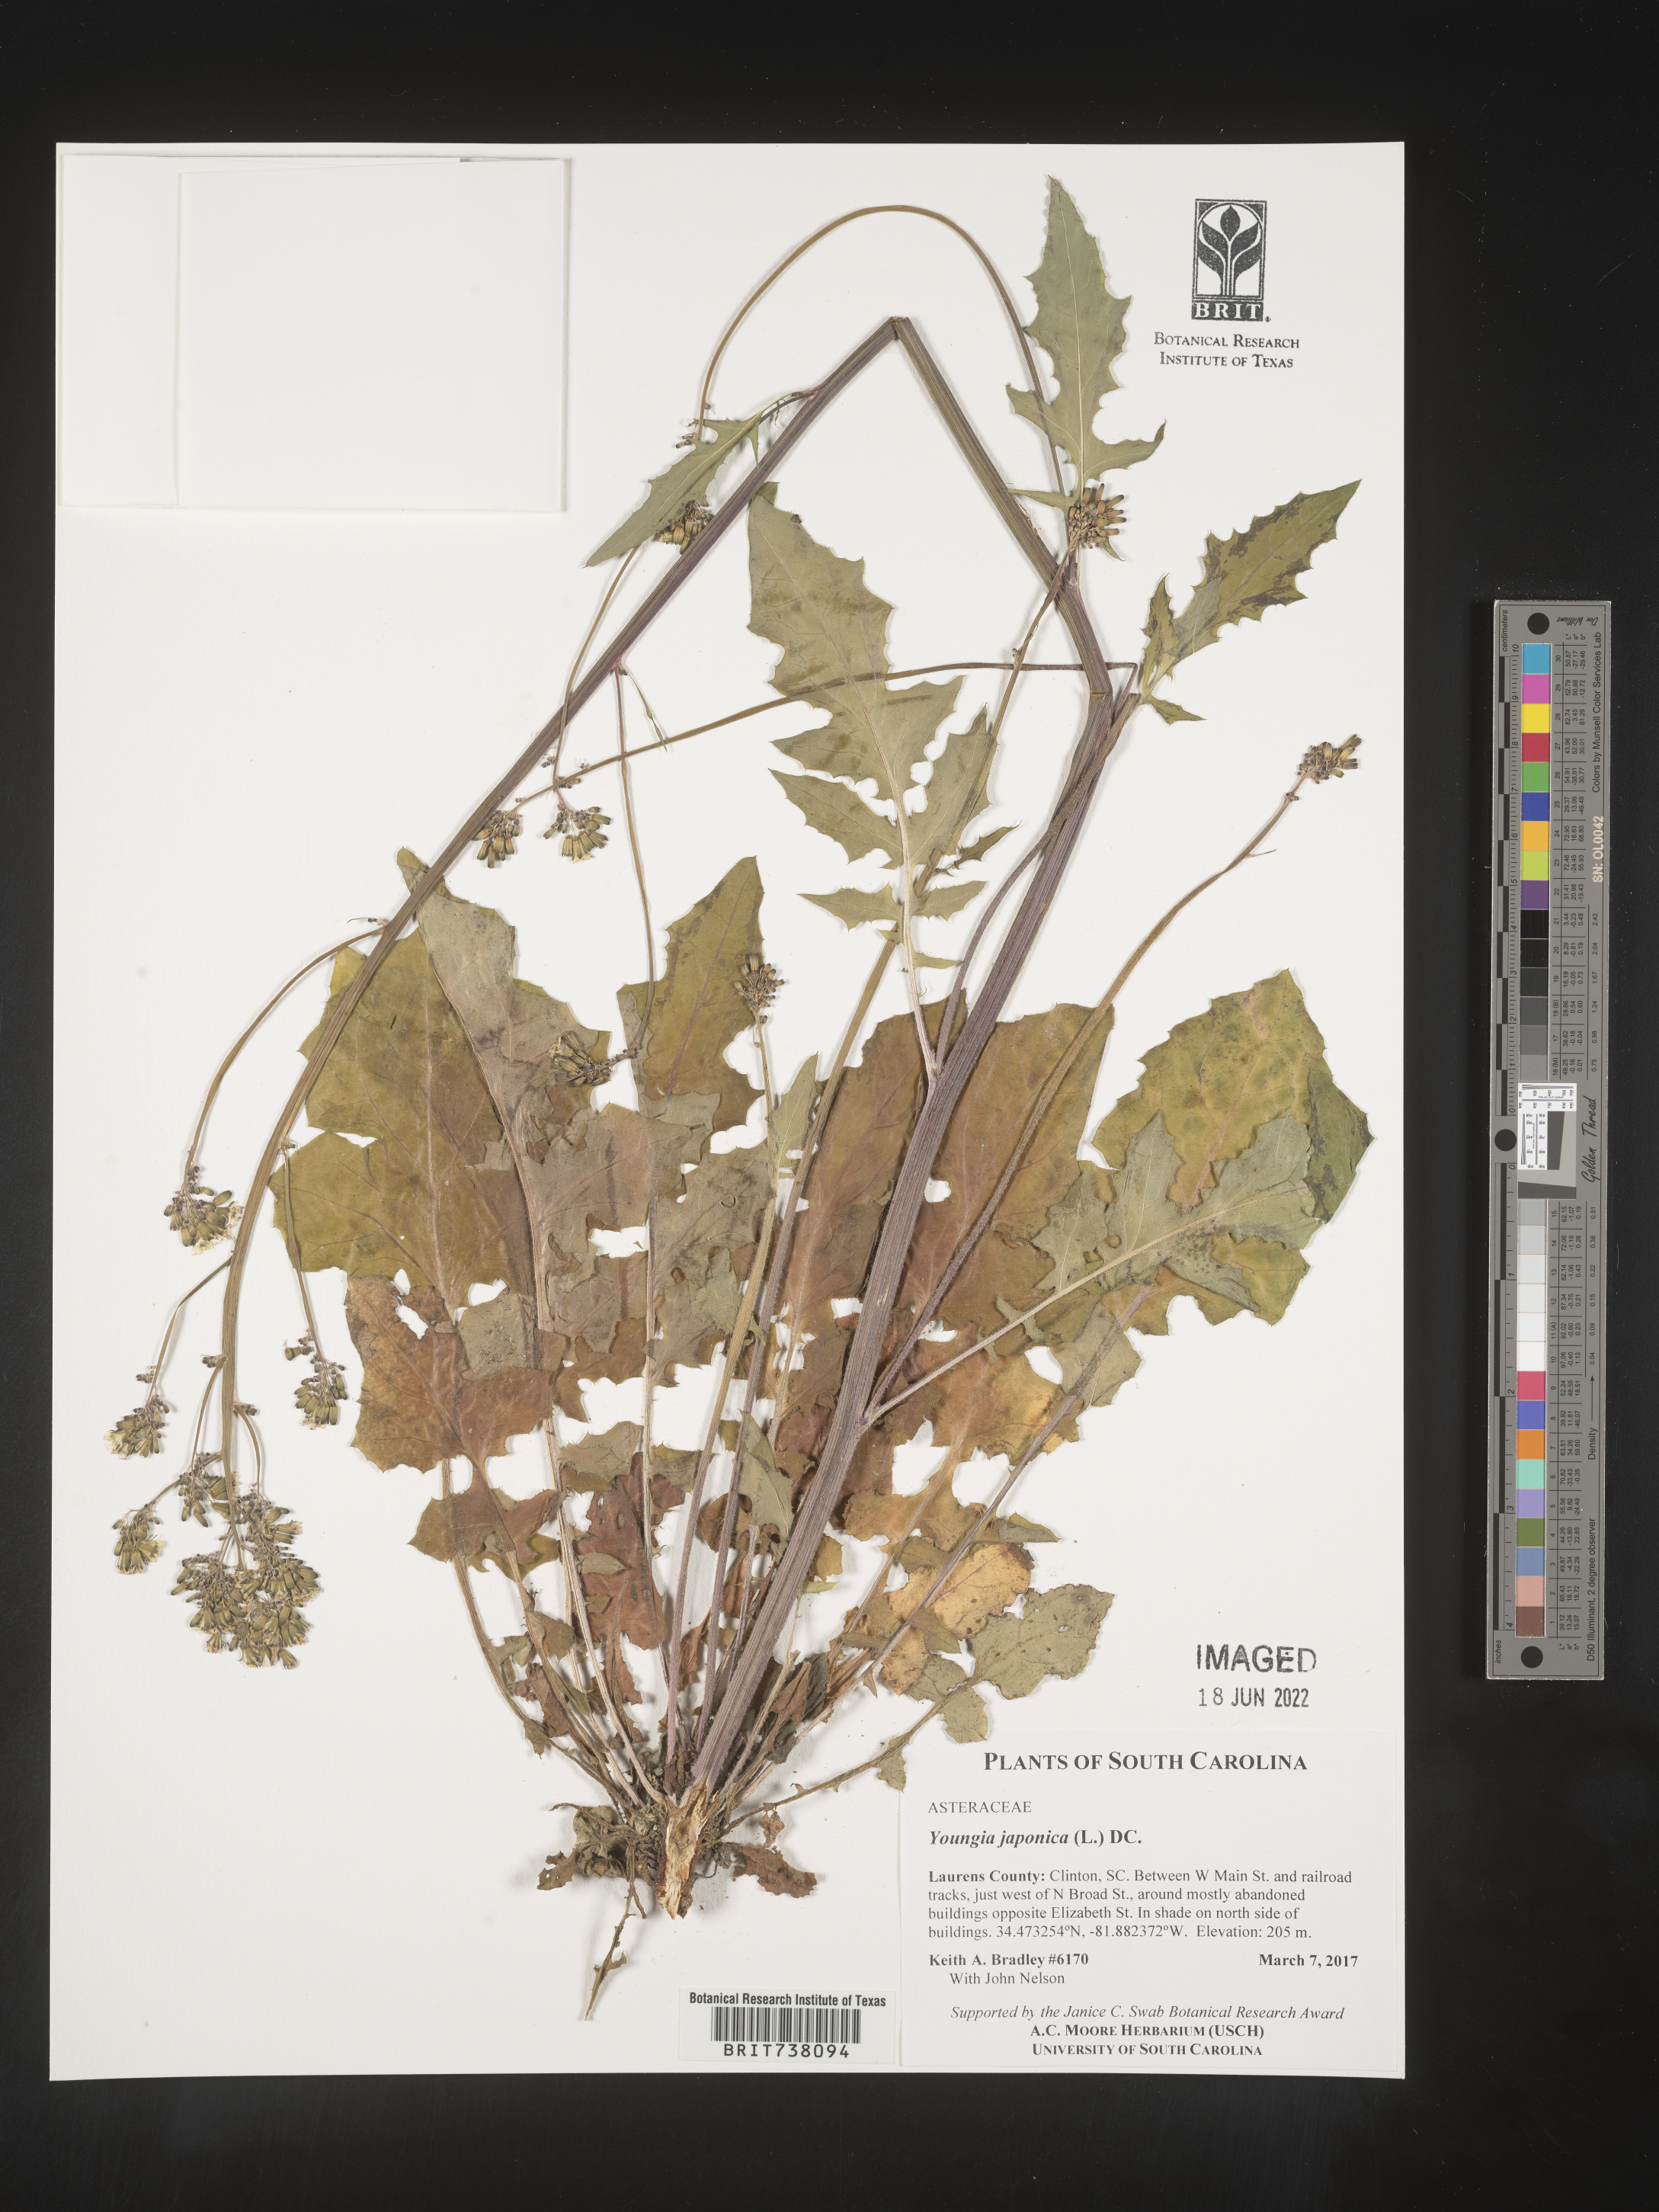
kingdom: Plantae
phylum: Tracheophyta
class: Magnoliopsida
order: Asterales
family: Asteraceae
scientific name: Asteraceae
